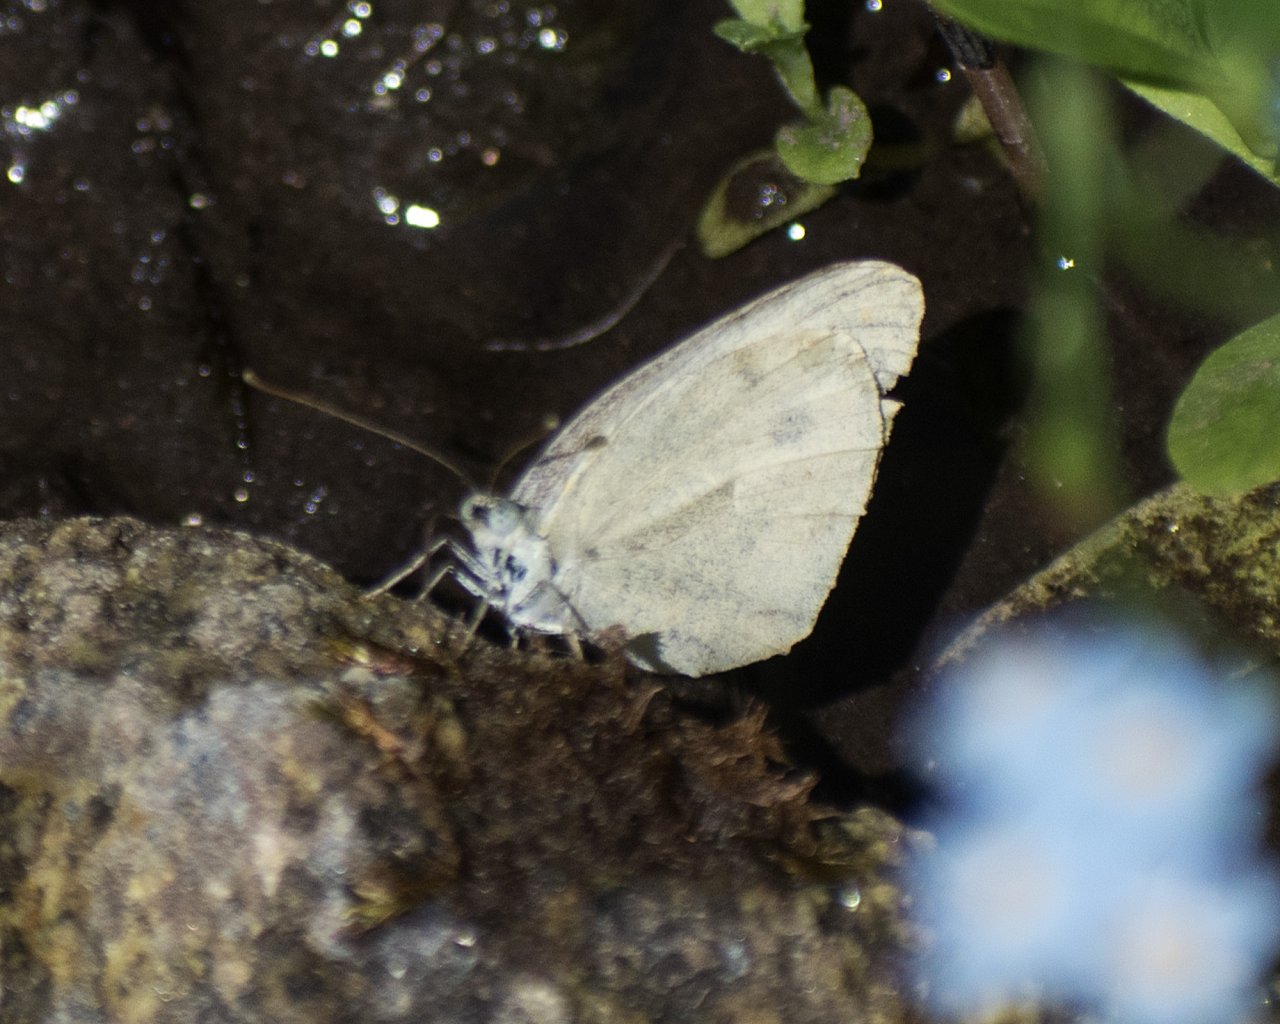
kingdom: Animalia
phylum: Arthropoda
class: Insecta
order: Lepidoptera
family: Pieridae
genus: Pieris
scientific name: Pieris rapae
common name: Cabbage White
